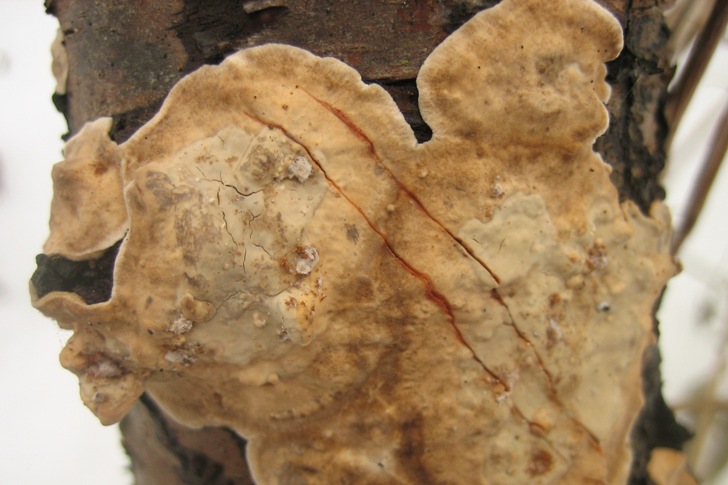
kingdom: Fungi
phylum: Basidiomycota
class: Agaricomycetes
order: Russulales
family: Stereaceae
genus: Stereum
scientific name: Stereum rugosum
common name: rynket lædersvamp
